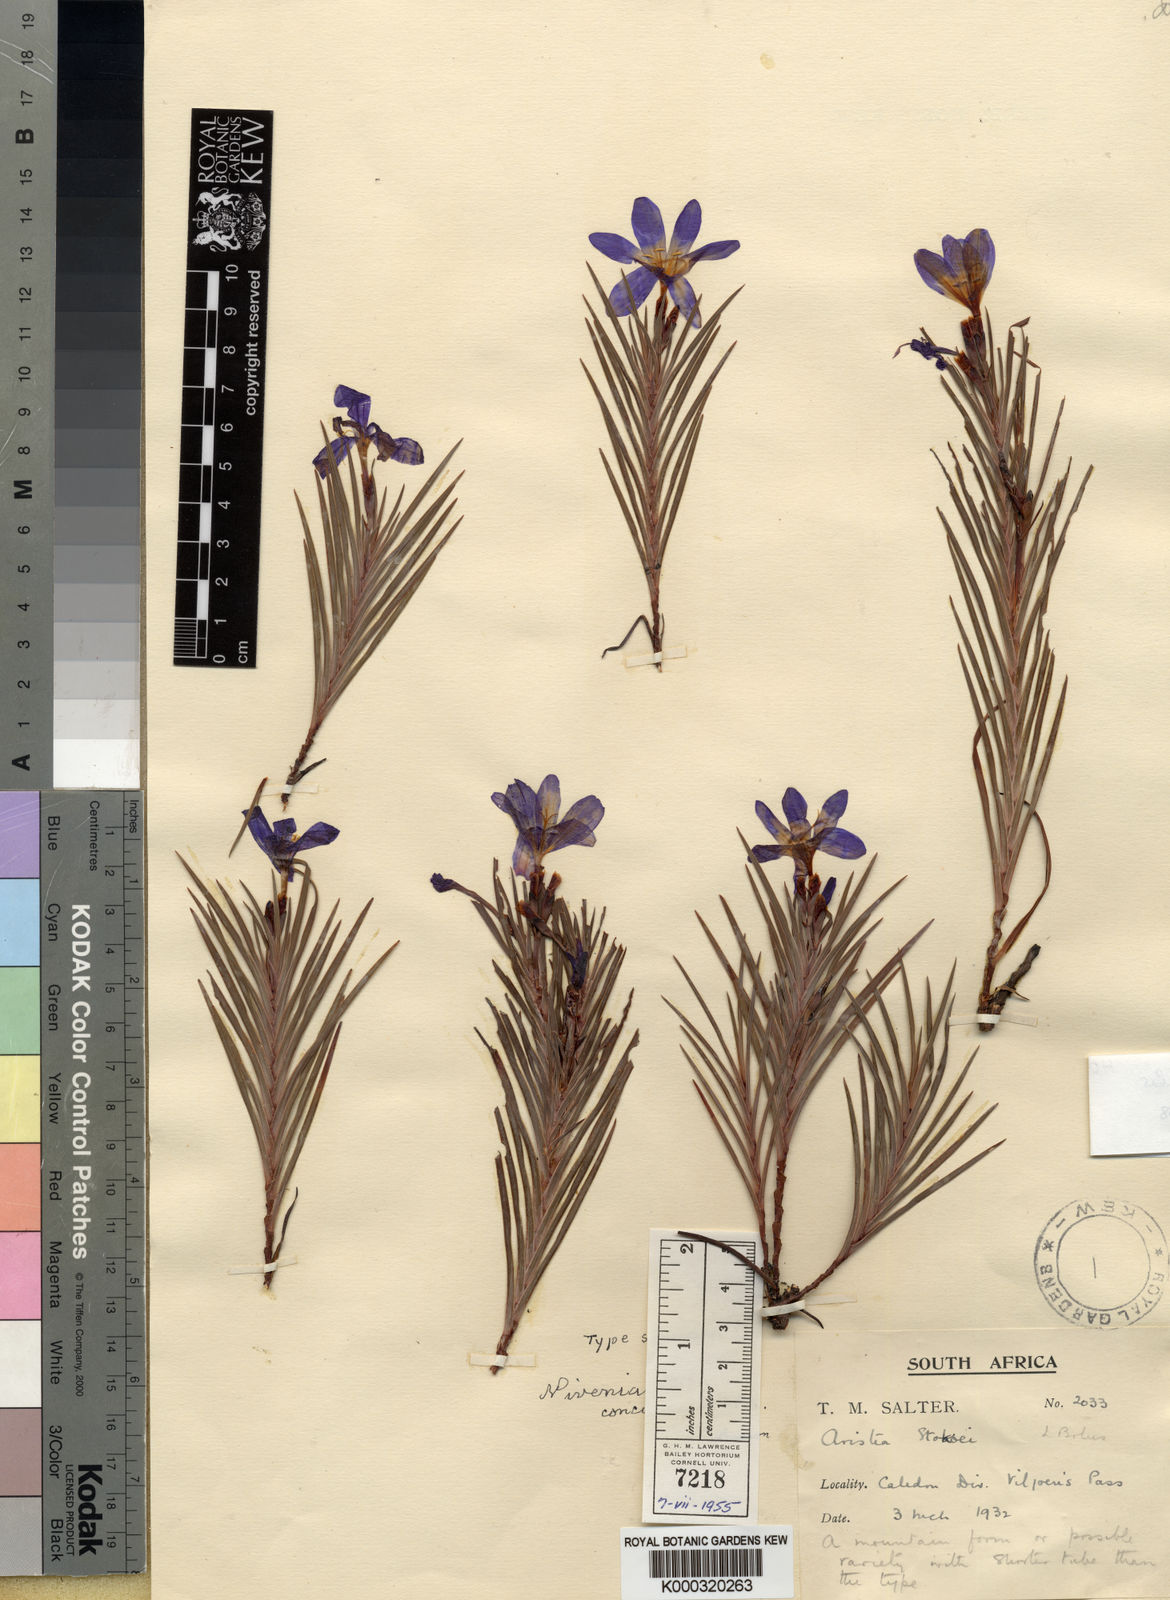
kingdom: Plantae
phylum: Tracheophyta
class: Liliopsida
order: Asparagales
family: Iridaceae
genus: Nivenia
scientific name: Nivenia concinna
